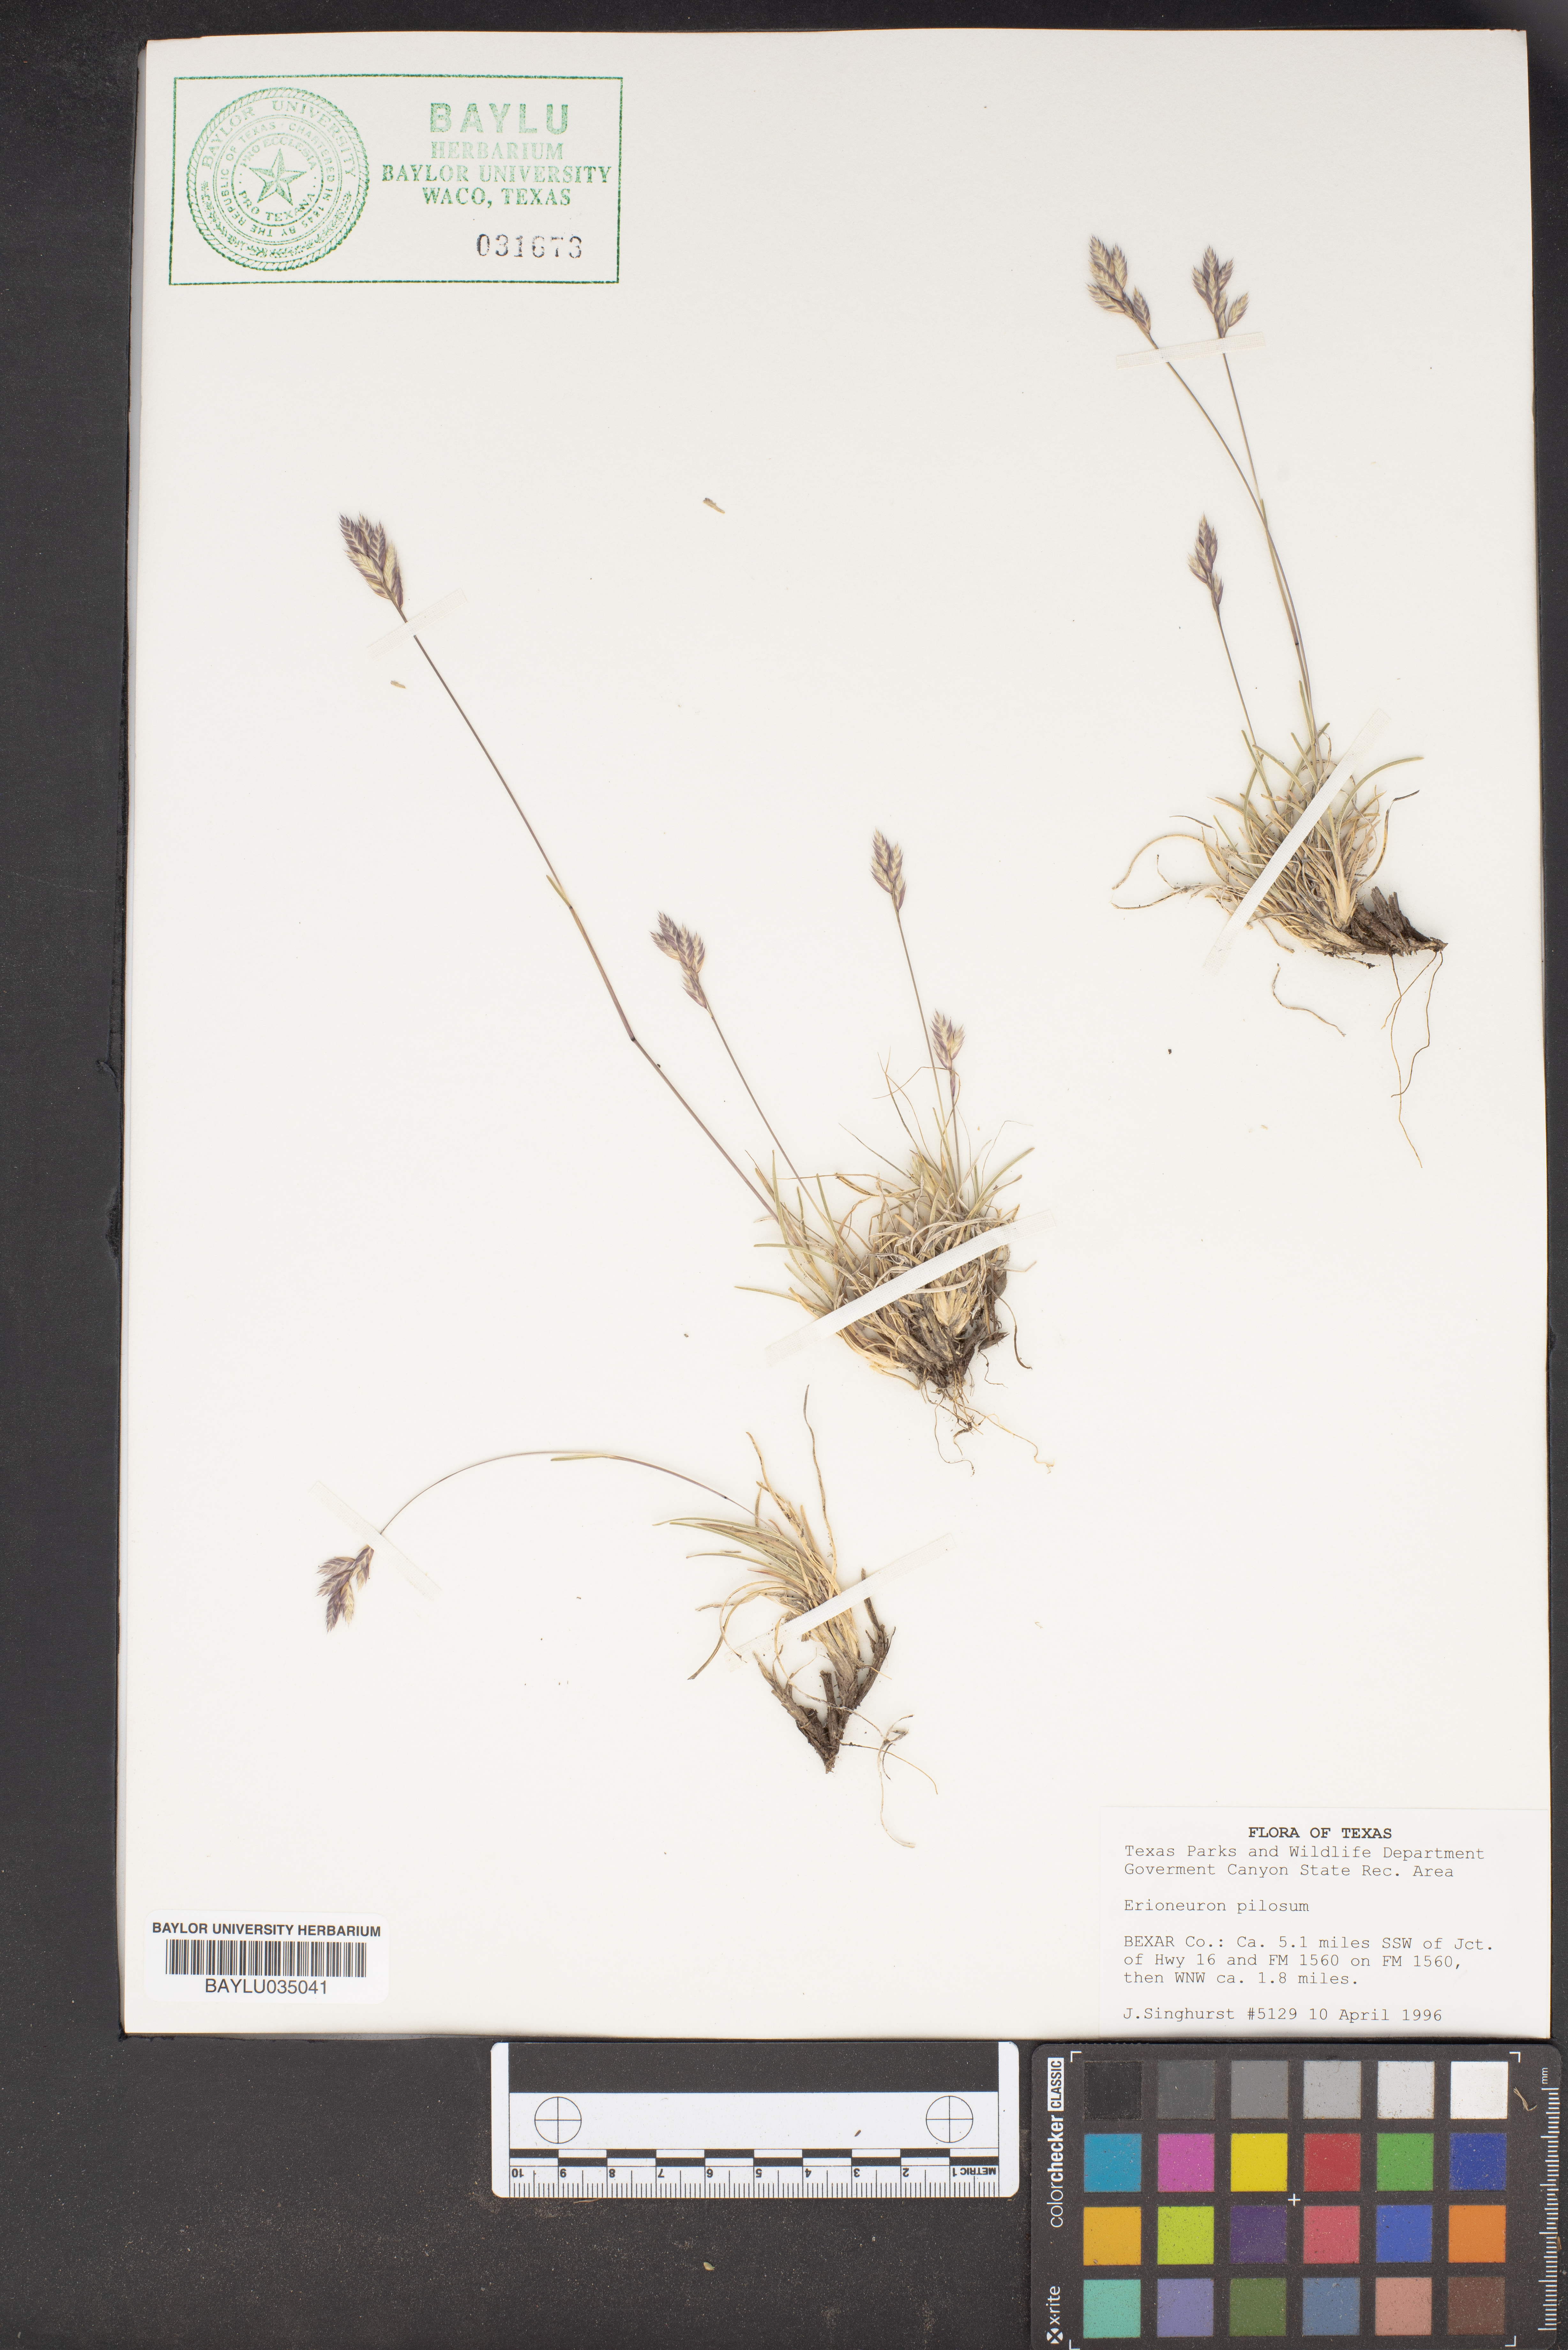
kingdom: Plantae
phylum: Tracheophyta
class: Liliopsida
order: Poales
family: Poaceae
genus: Erioneuron
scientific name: Erioneuron pilosum
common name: Hairy woolly grass
